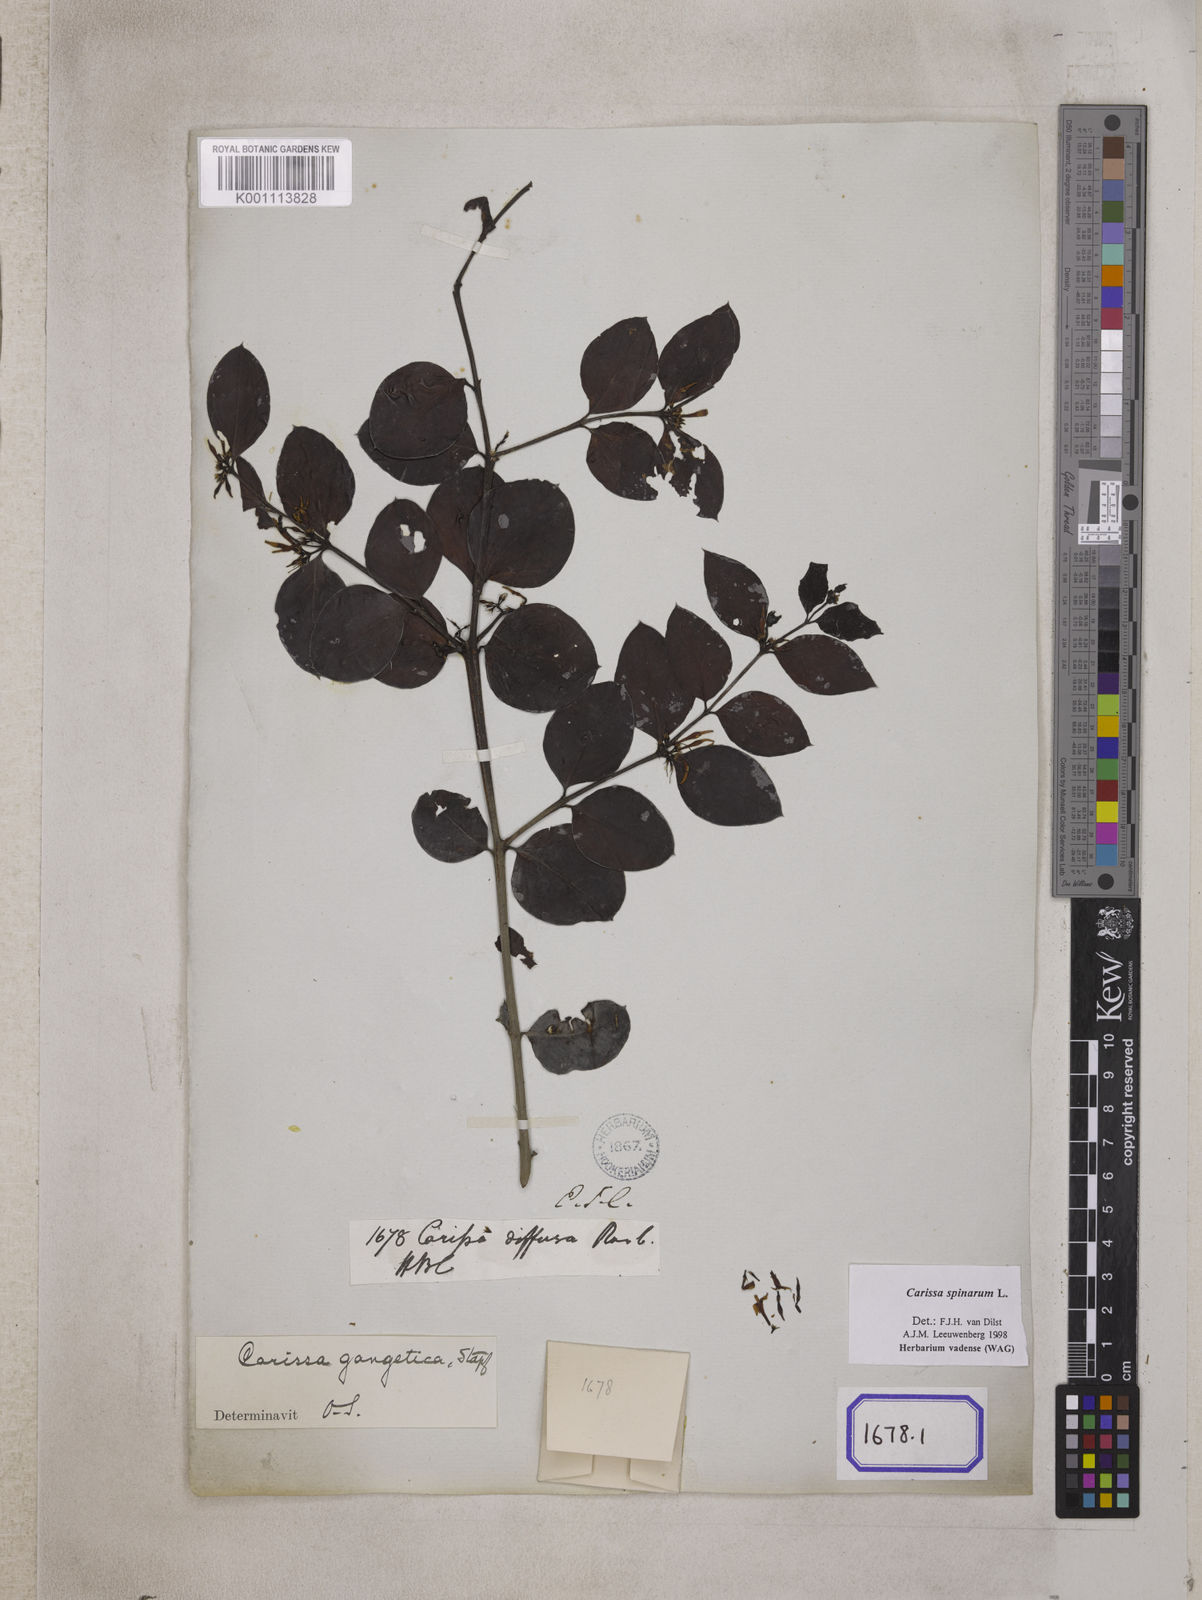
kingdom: Plantae
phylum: Tracheophyta
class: Magnoliopsida
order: Gentianales
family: Apocynaceae
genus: Carissa
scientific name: Carissa spinarum
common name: Egyptian carissa
